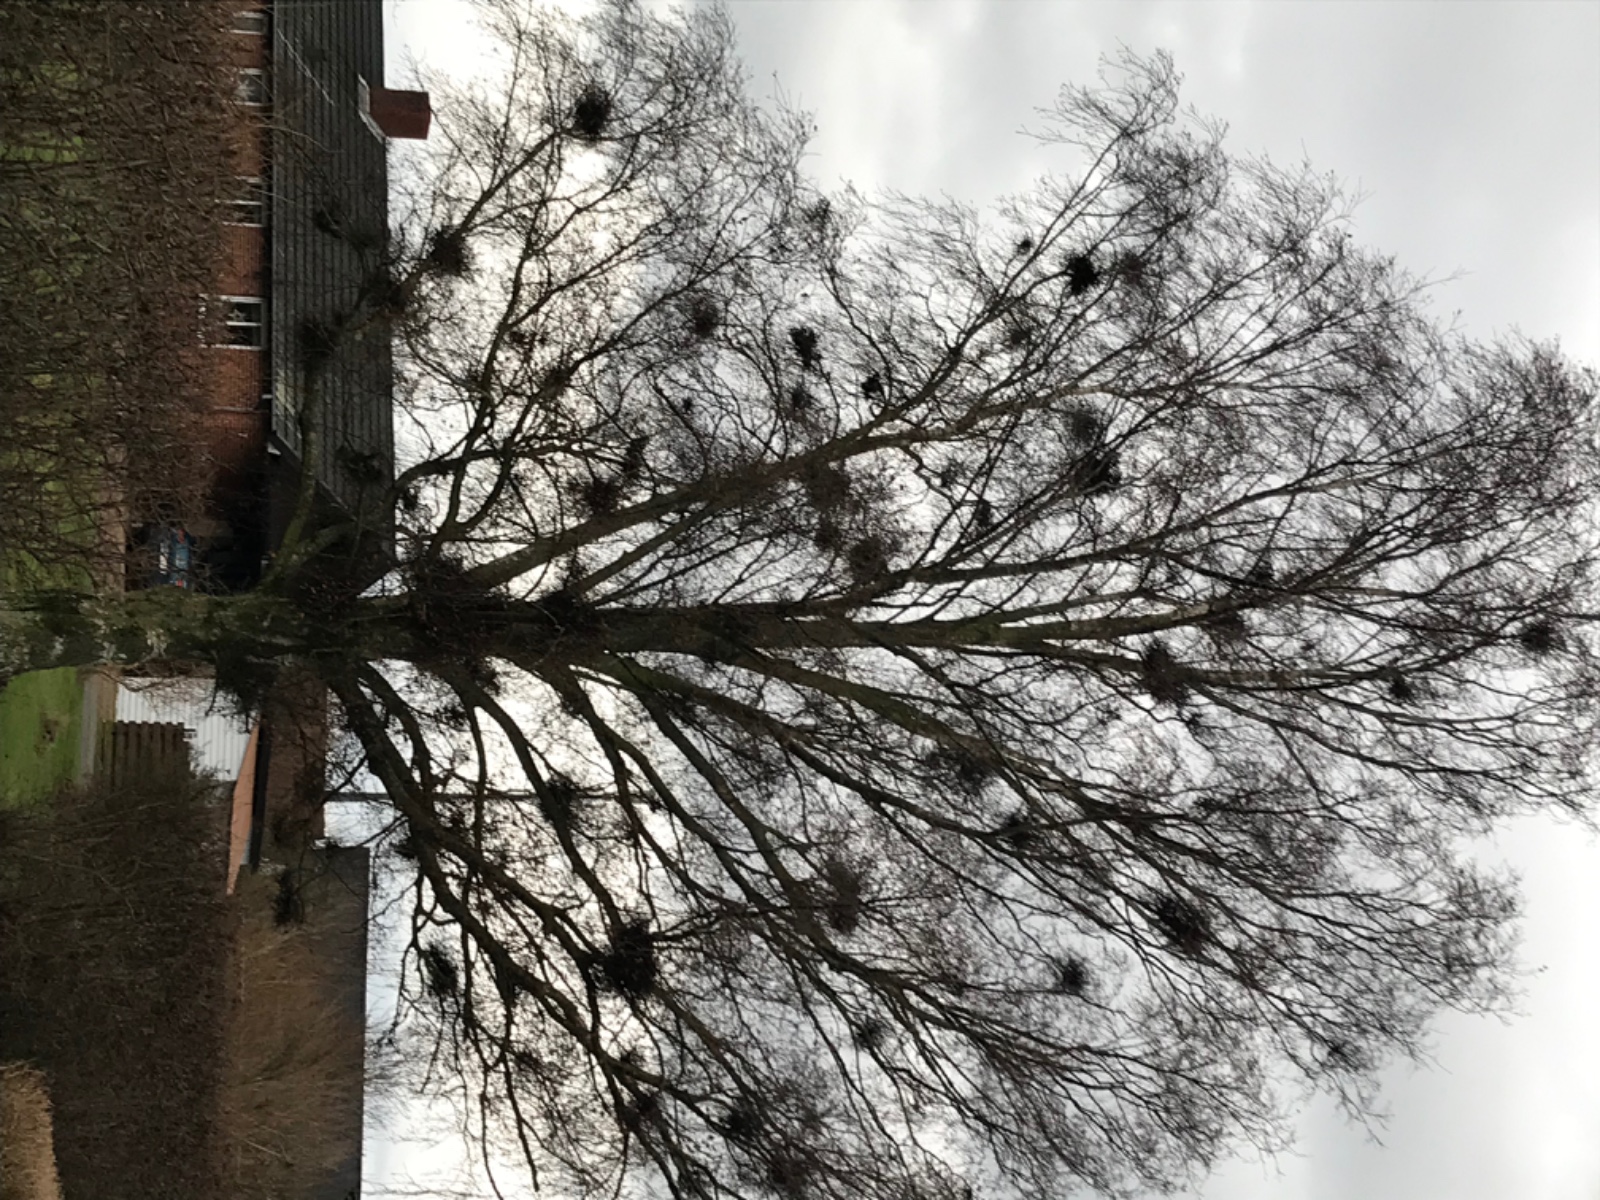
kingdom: Fungi
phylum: Ascomycota
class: Taphrinomycetes
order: Taphrinales
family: Taphrinaceae
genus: Taphrina
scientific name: Taphrina betulina
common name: hekse-sækdug
